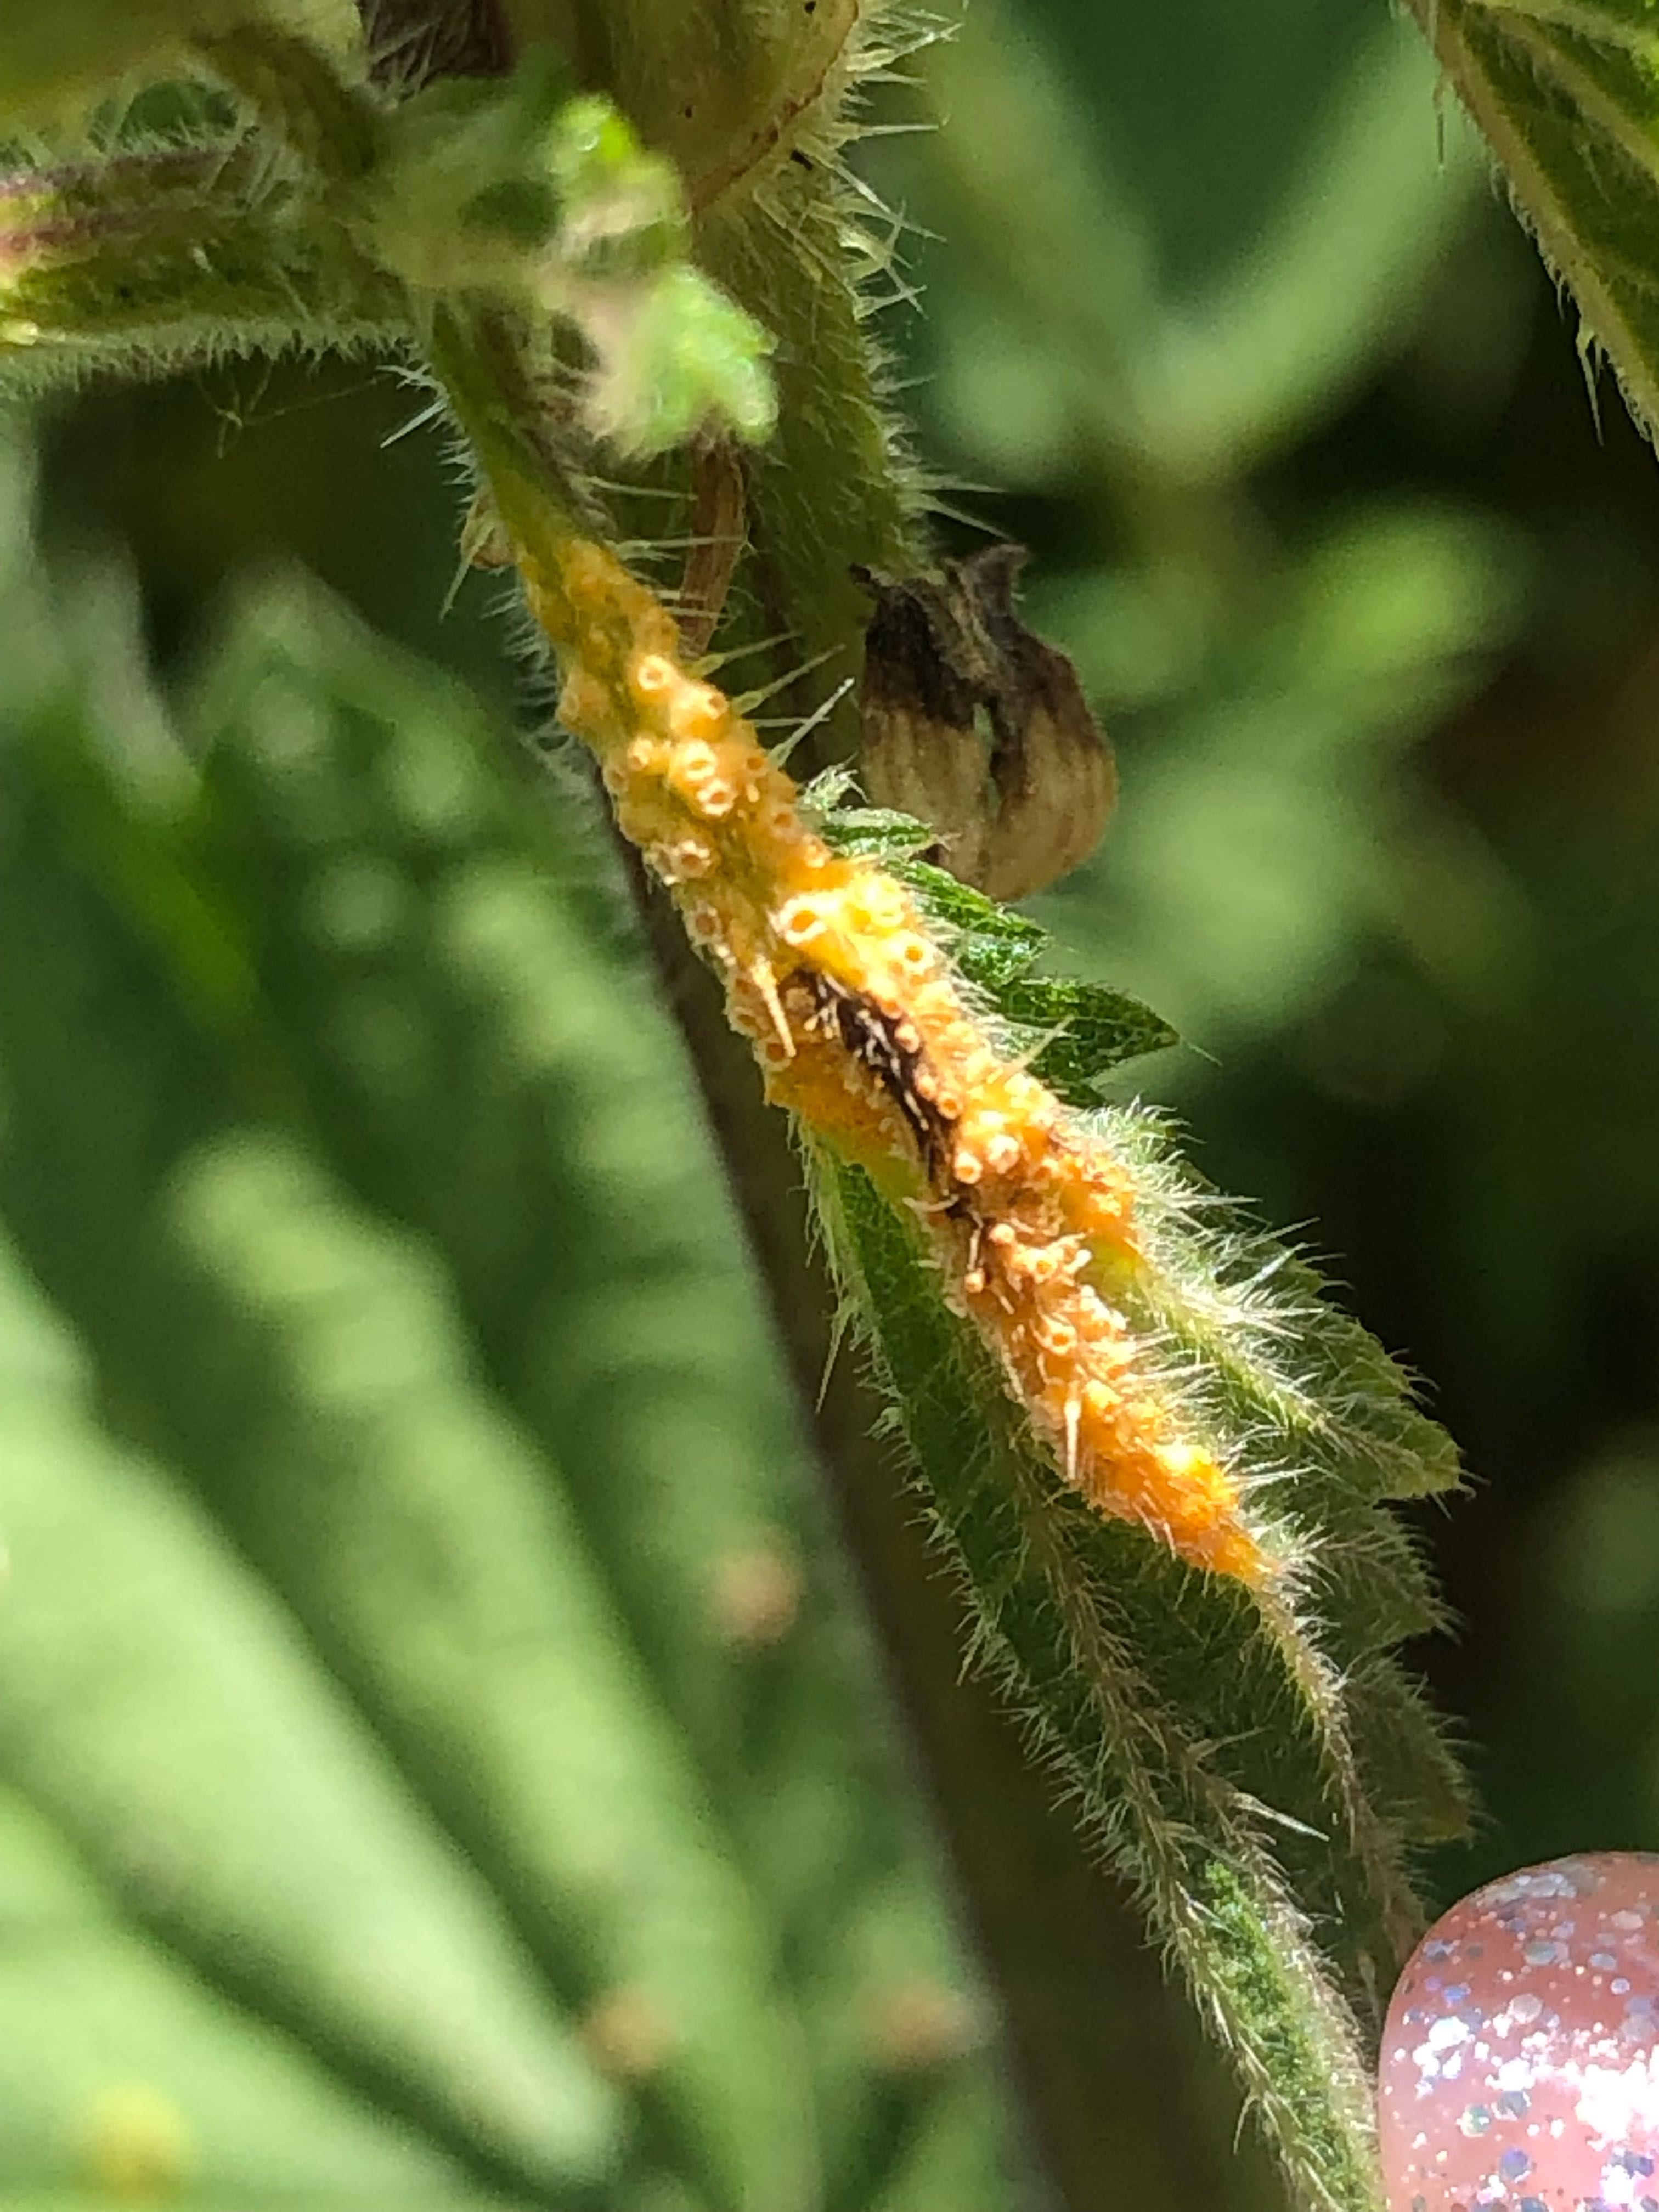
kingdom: Fungi
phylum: Basidiomycota
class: Pucciniomycetes
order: Pucciniales
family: Pucciniaceae
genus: Puccinia
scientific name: Puccinia urticata
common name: nældegalle-tvecellerust
